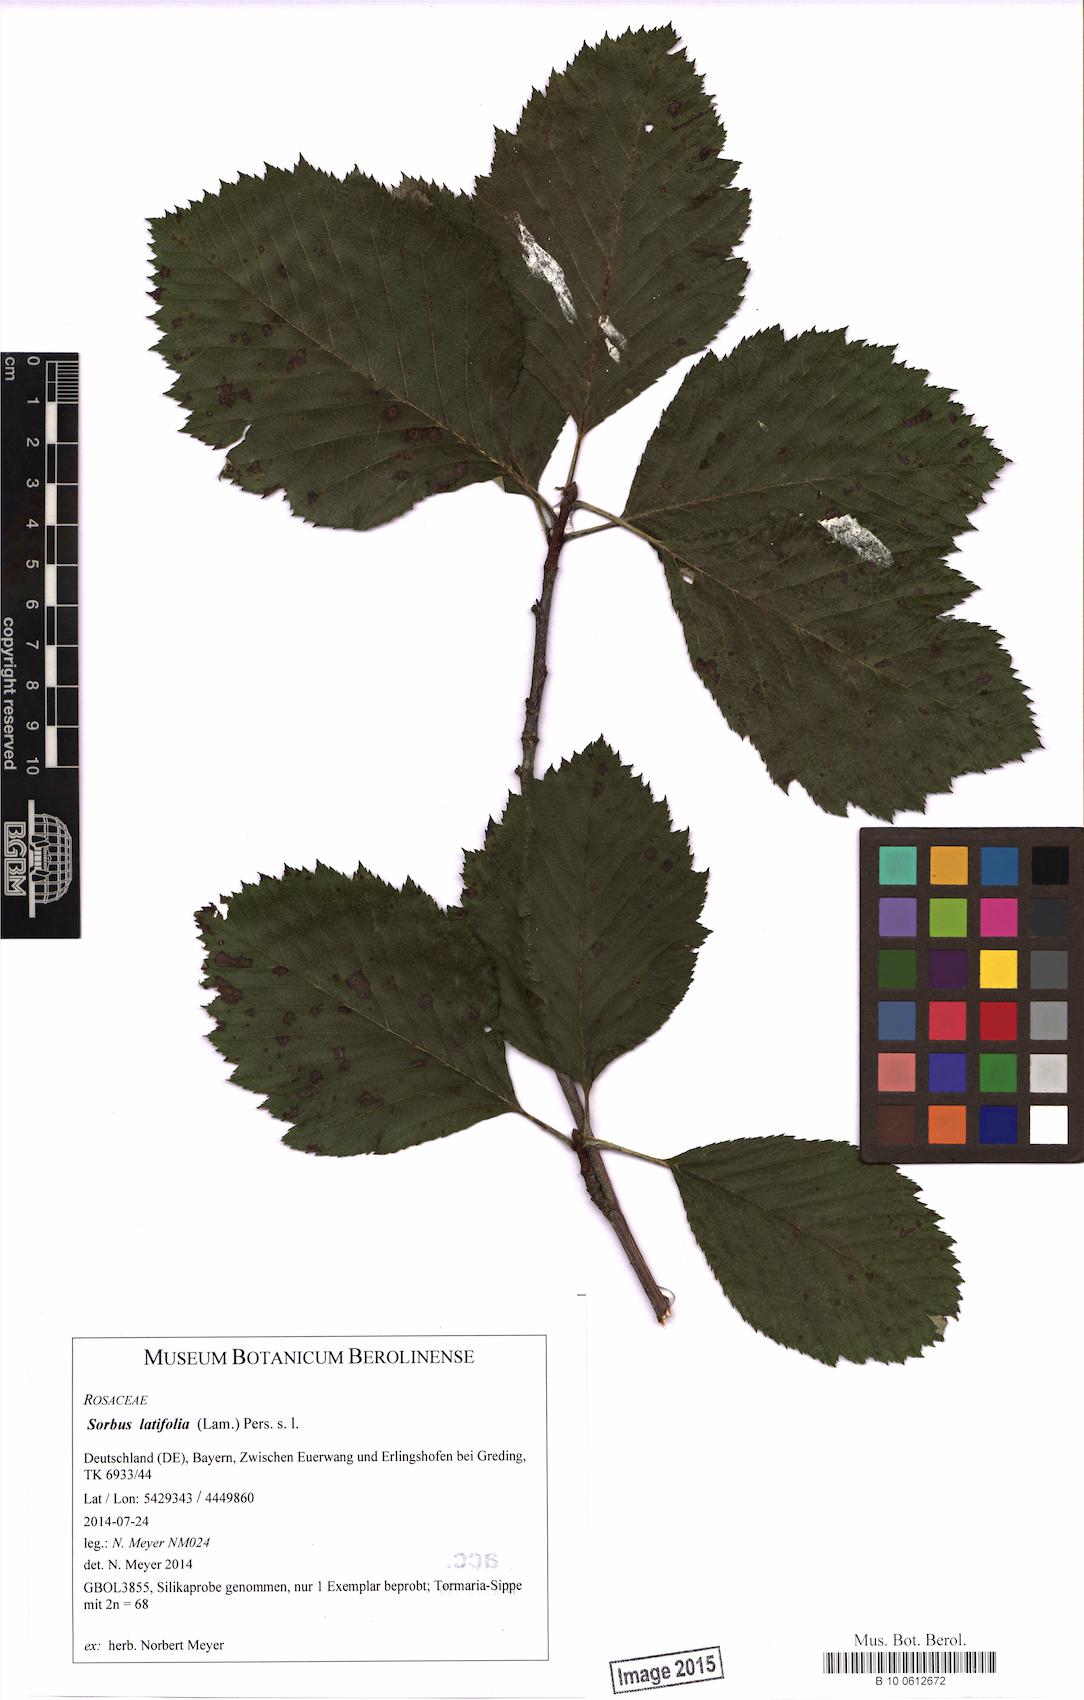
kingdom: Plantae
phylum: Tracheophyta
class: Magnoliopsida
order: Rosales
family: Rosaceae
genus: Karpatiosorbus
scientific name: Karpatiosorbus latifolia
